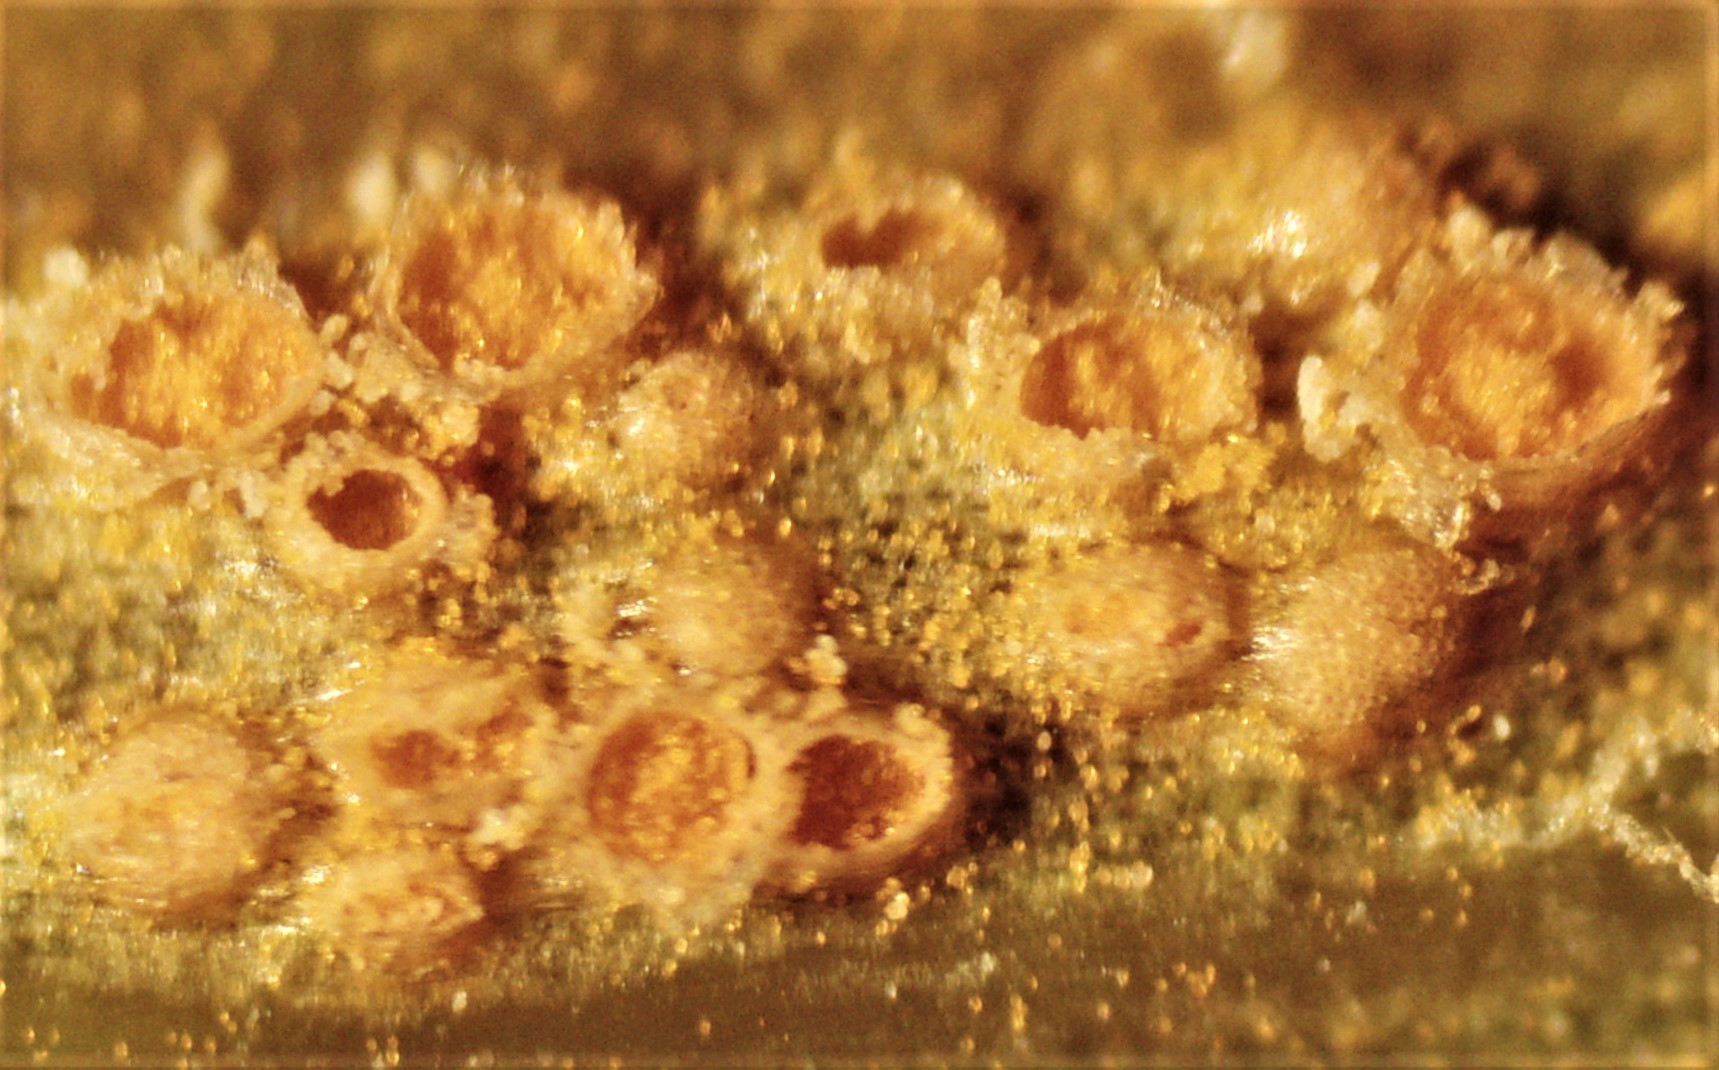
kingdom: Fungi
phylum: Basidiomycota
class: Pucciniomycetes
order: Pucciniales
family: Pucciniaceae
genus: Puccinia
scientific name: Puccinia lagenophorae
